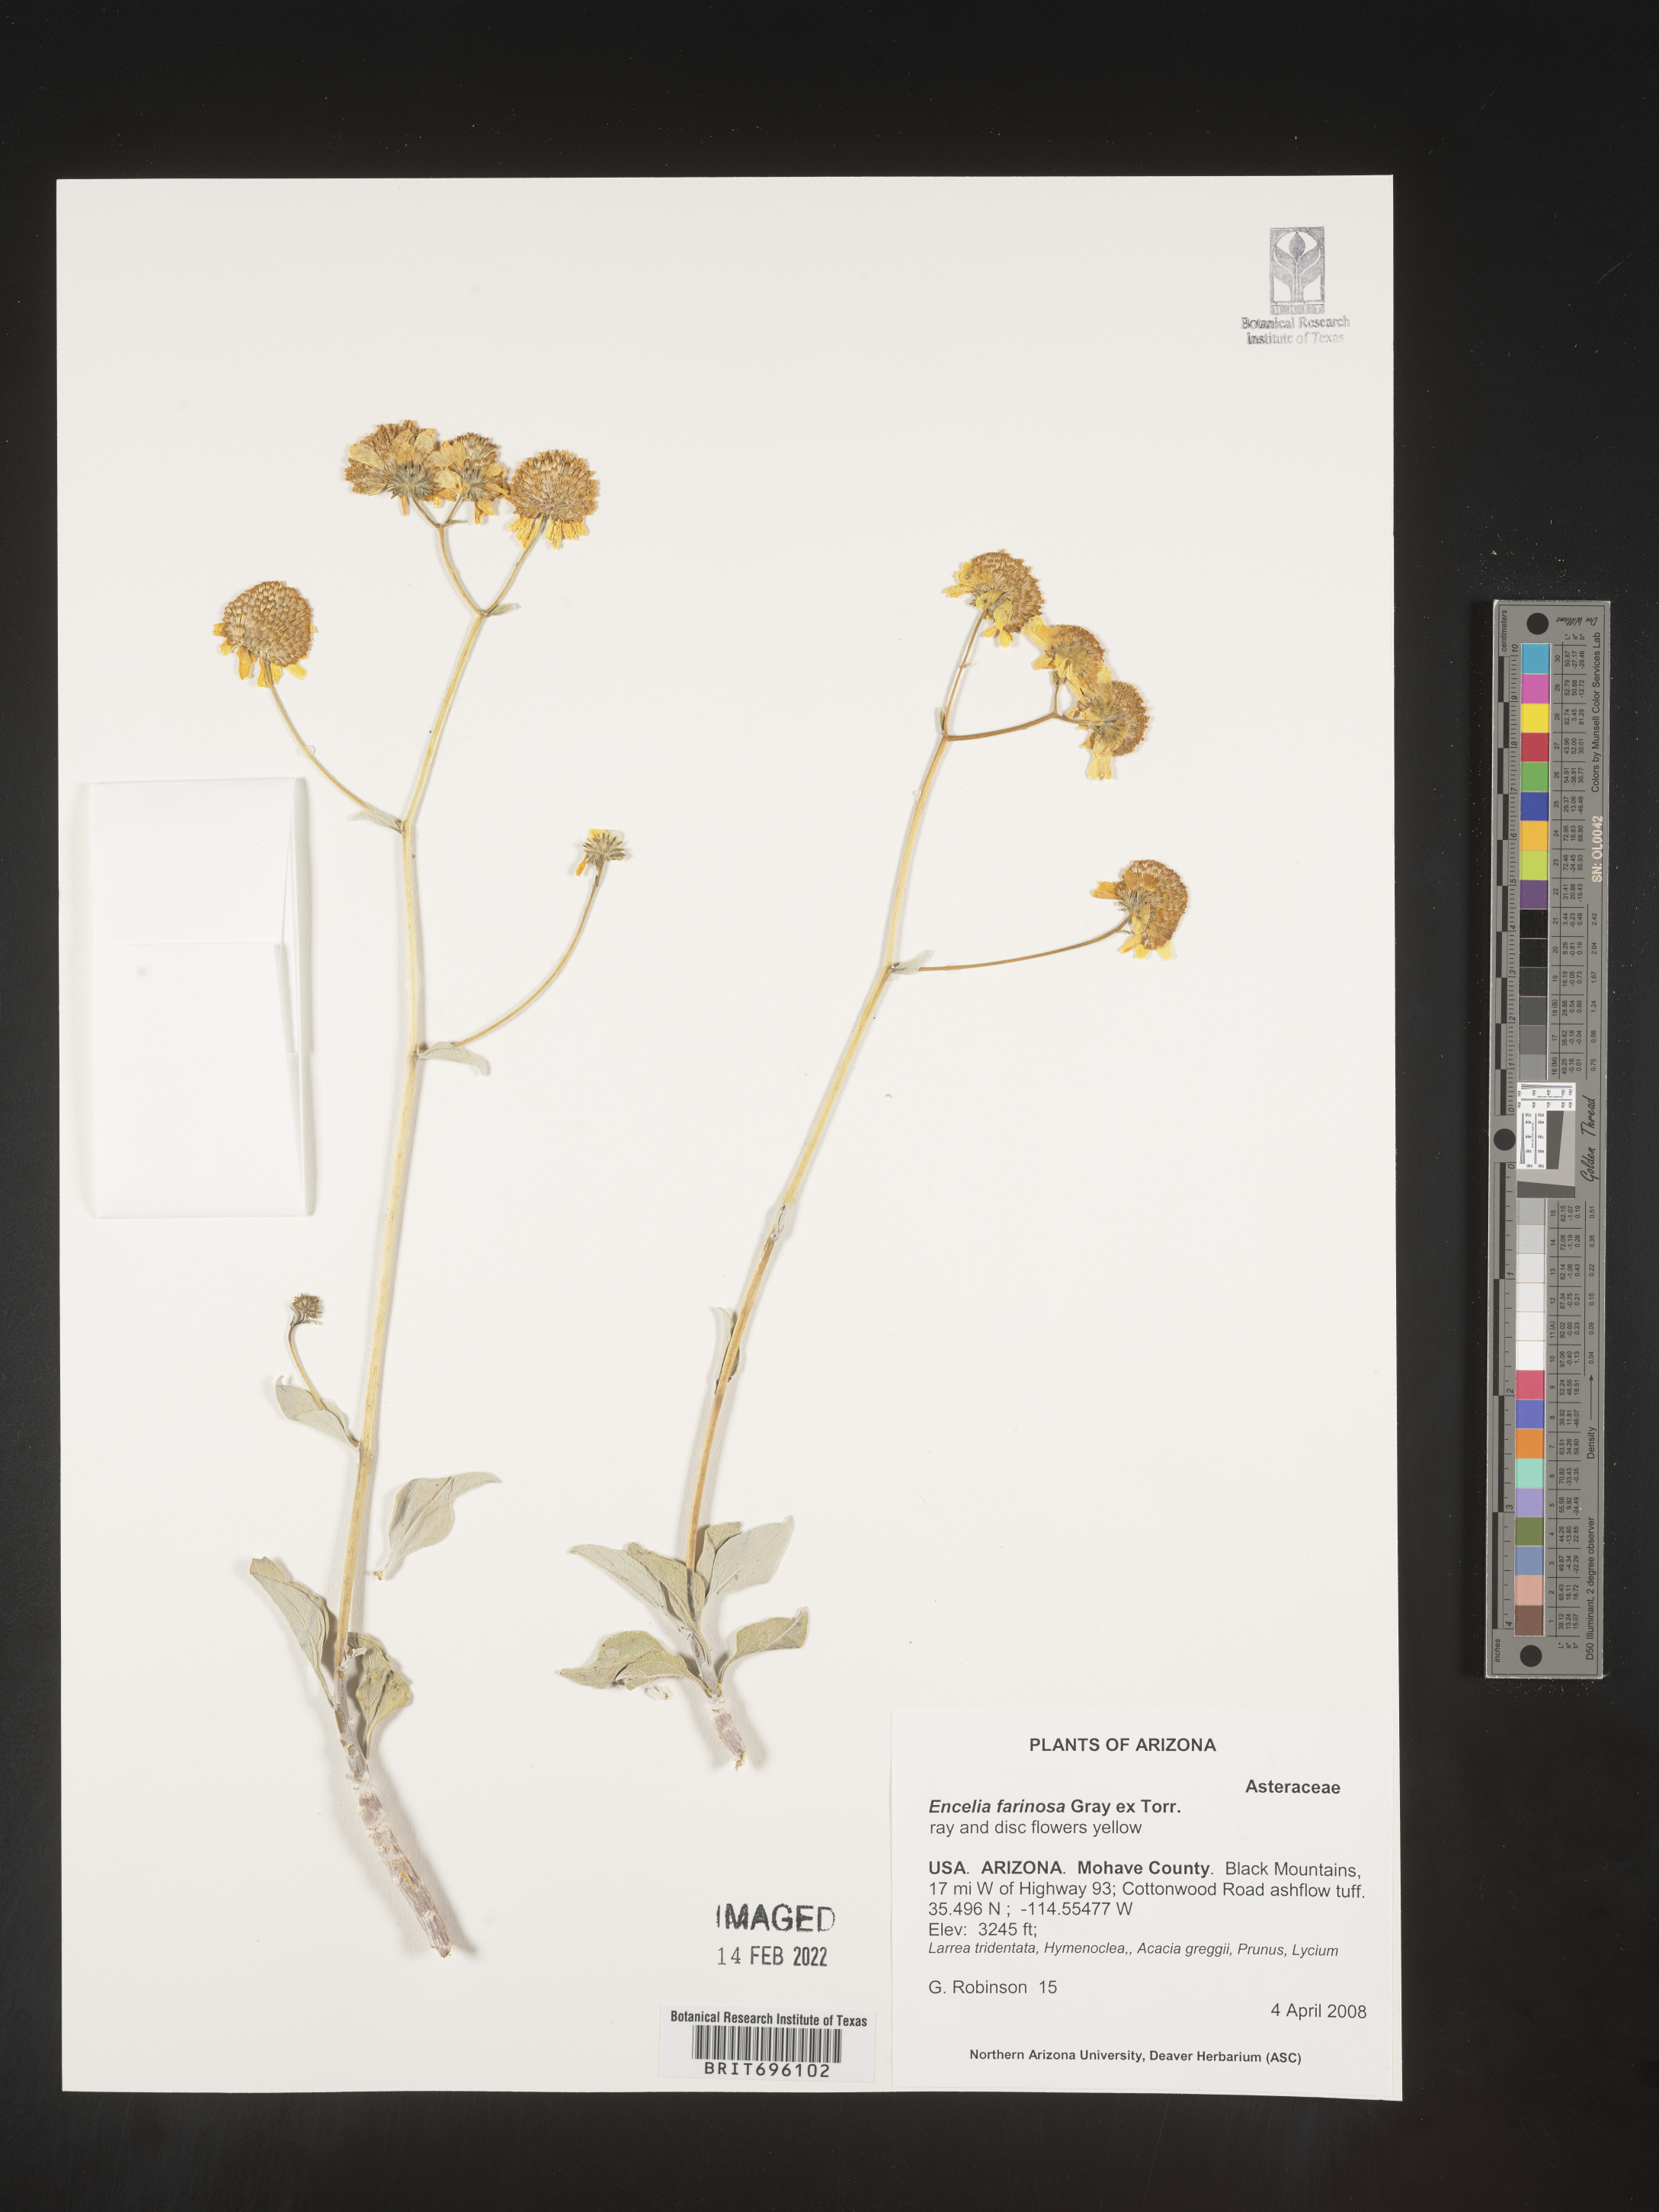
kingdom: Plantae
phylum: Tracheophyta
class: Magnoliopsida
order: Asterales
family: Asteraceae
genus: Encelia
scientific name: Encelia farinosa
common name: Brittlebush
